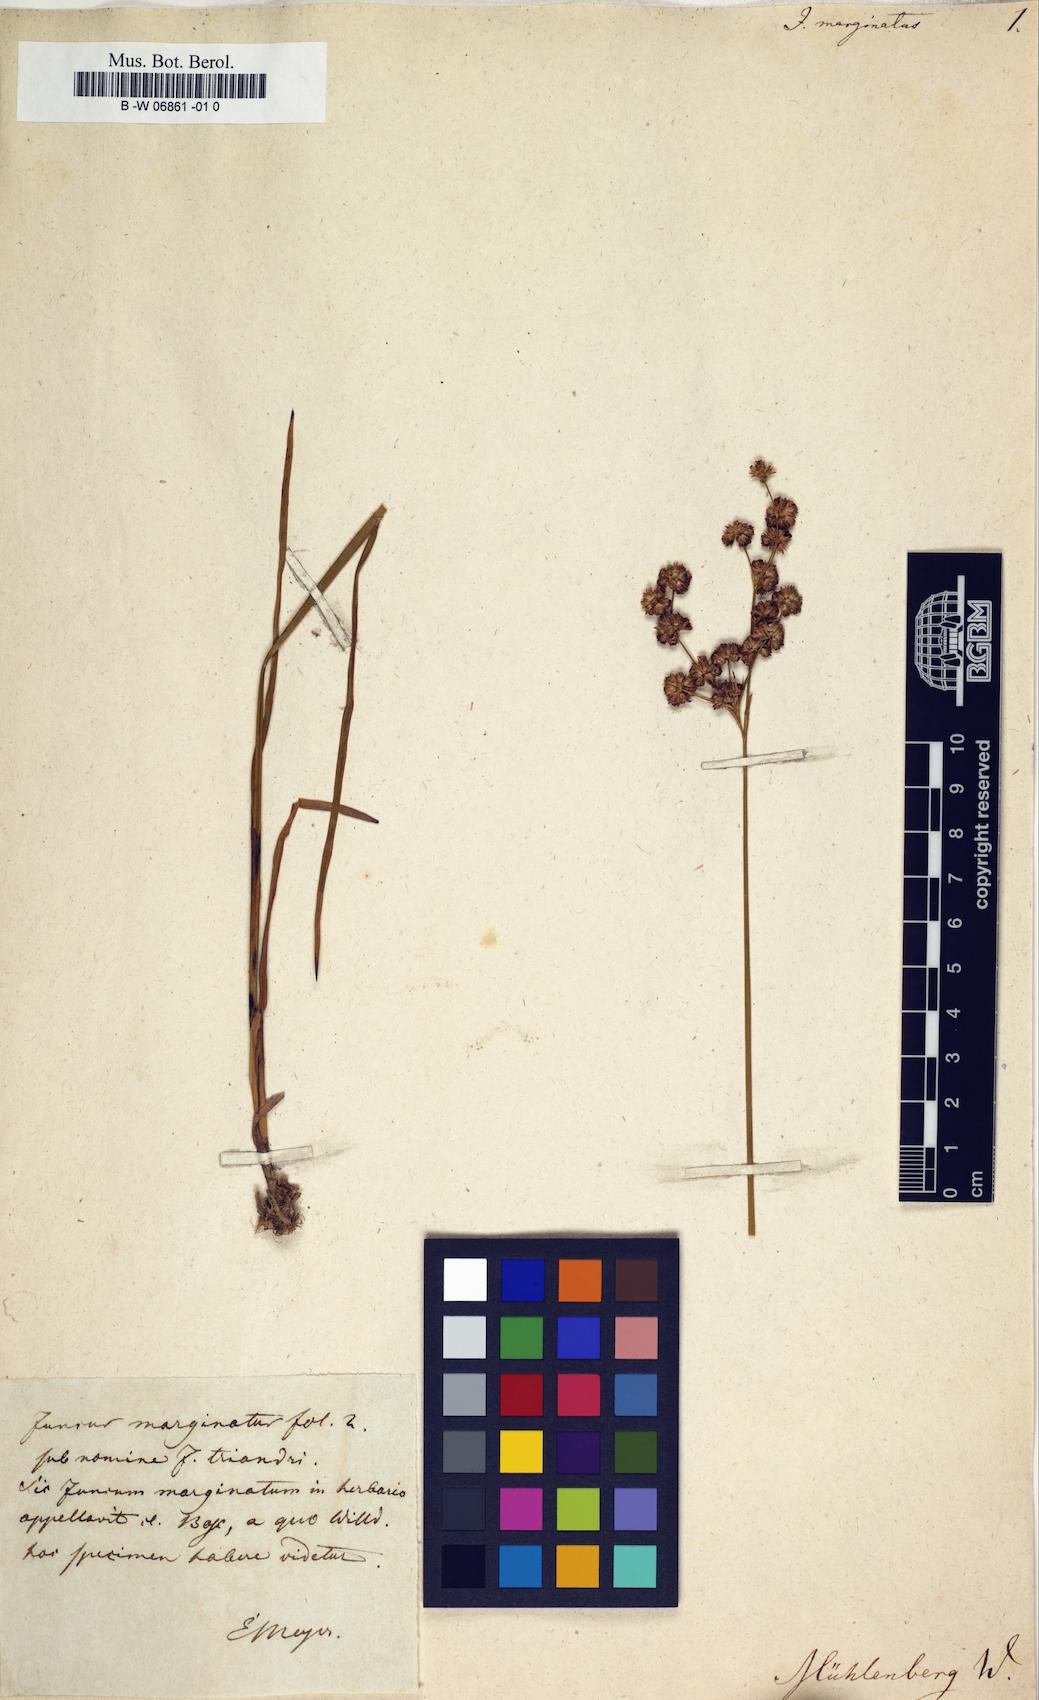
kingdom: Plantae
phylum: Tracheophyta
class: Liliopsida
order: Poales
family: Juncaceae
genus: Juncus
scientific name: Juncus marginatus
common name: Grass-leaf rush
